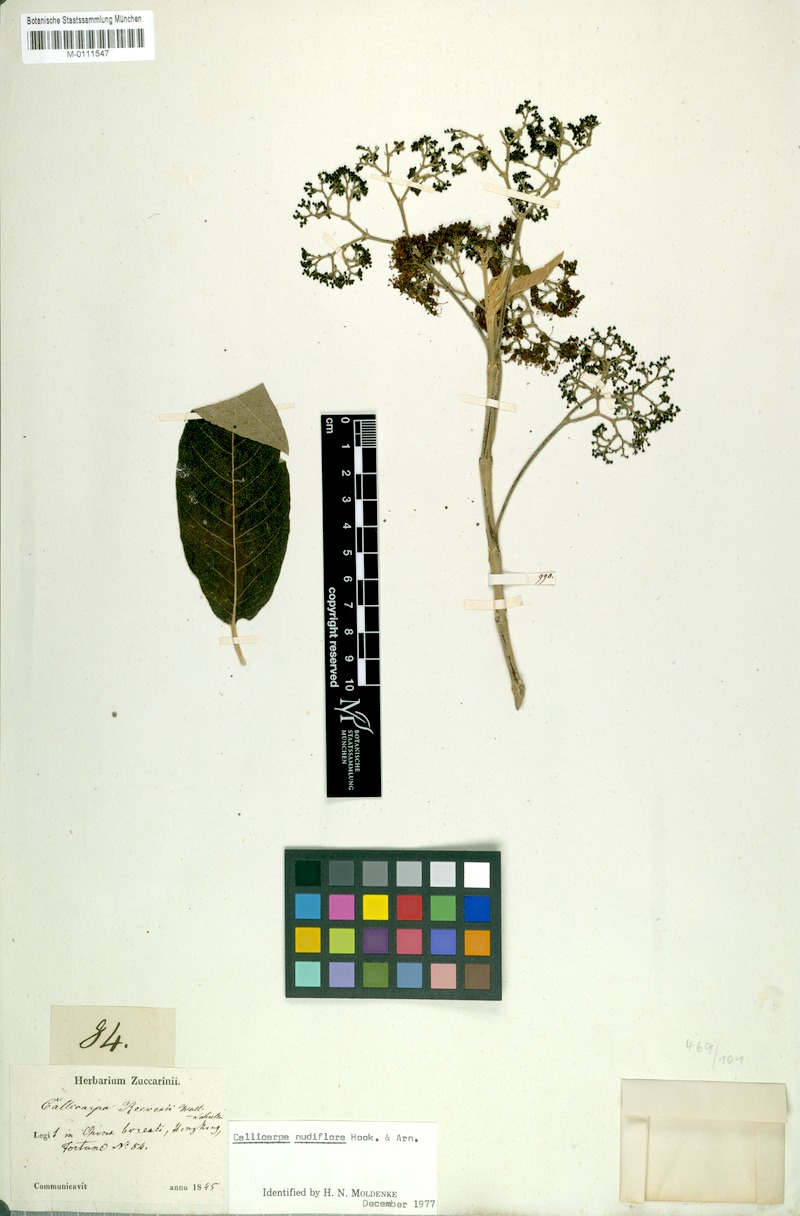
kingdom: Plantae
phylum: Tracheophyta
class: Magnoliopsida
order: Lamiales
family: Lamiaceae
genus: Callicarpa
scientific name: Callicarpa nudiflora
